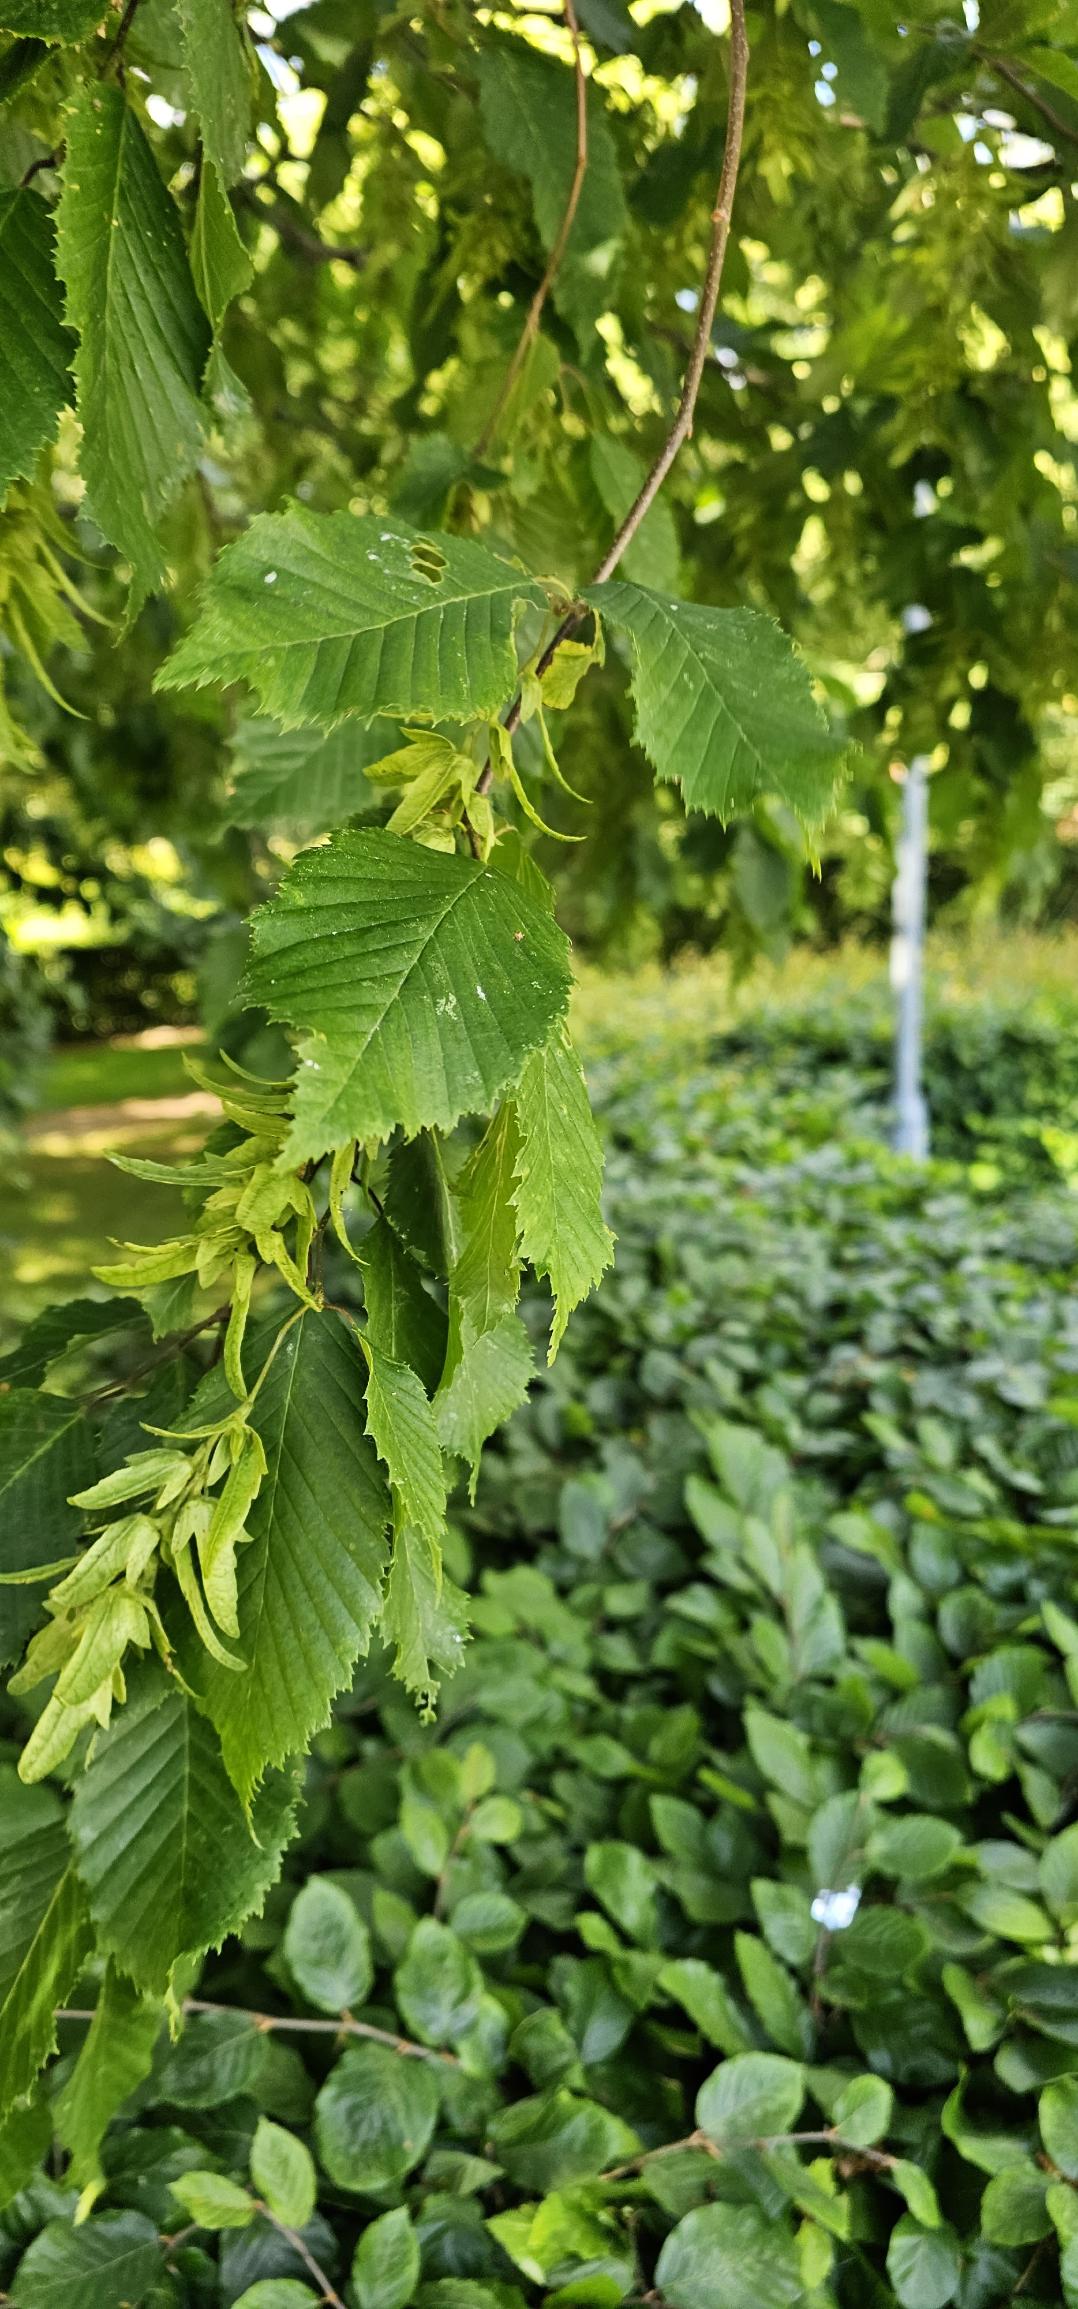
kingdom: Plantae
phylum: Tracheophyta
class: Magnoliopsida
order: Fagales
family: Betulaceae
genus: Carpinus
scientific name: Carpinus betulus
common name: Avnbøg
